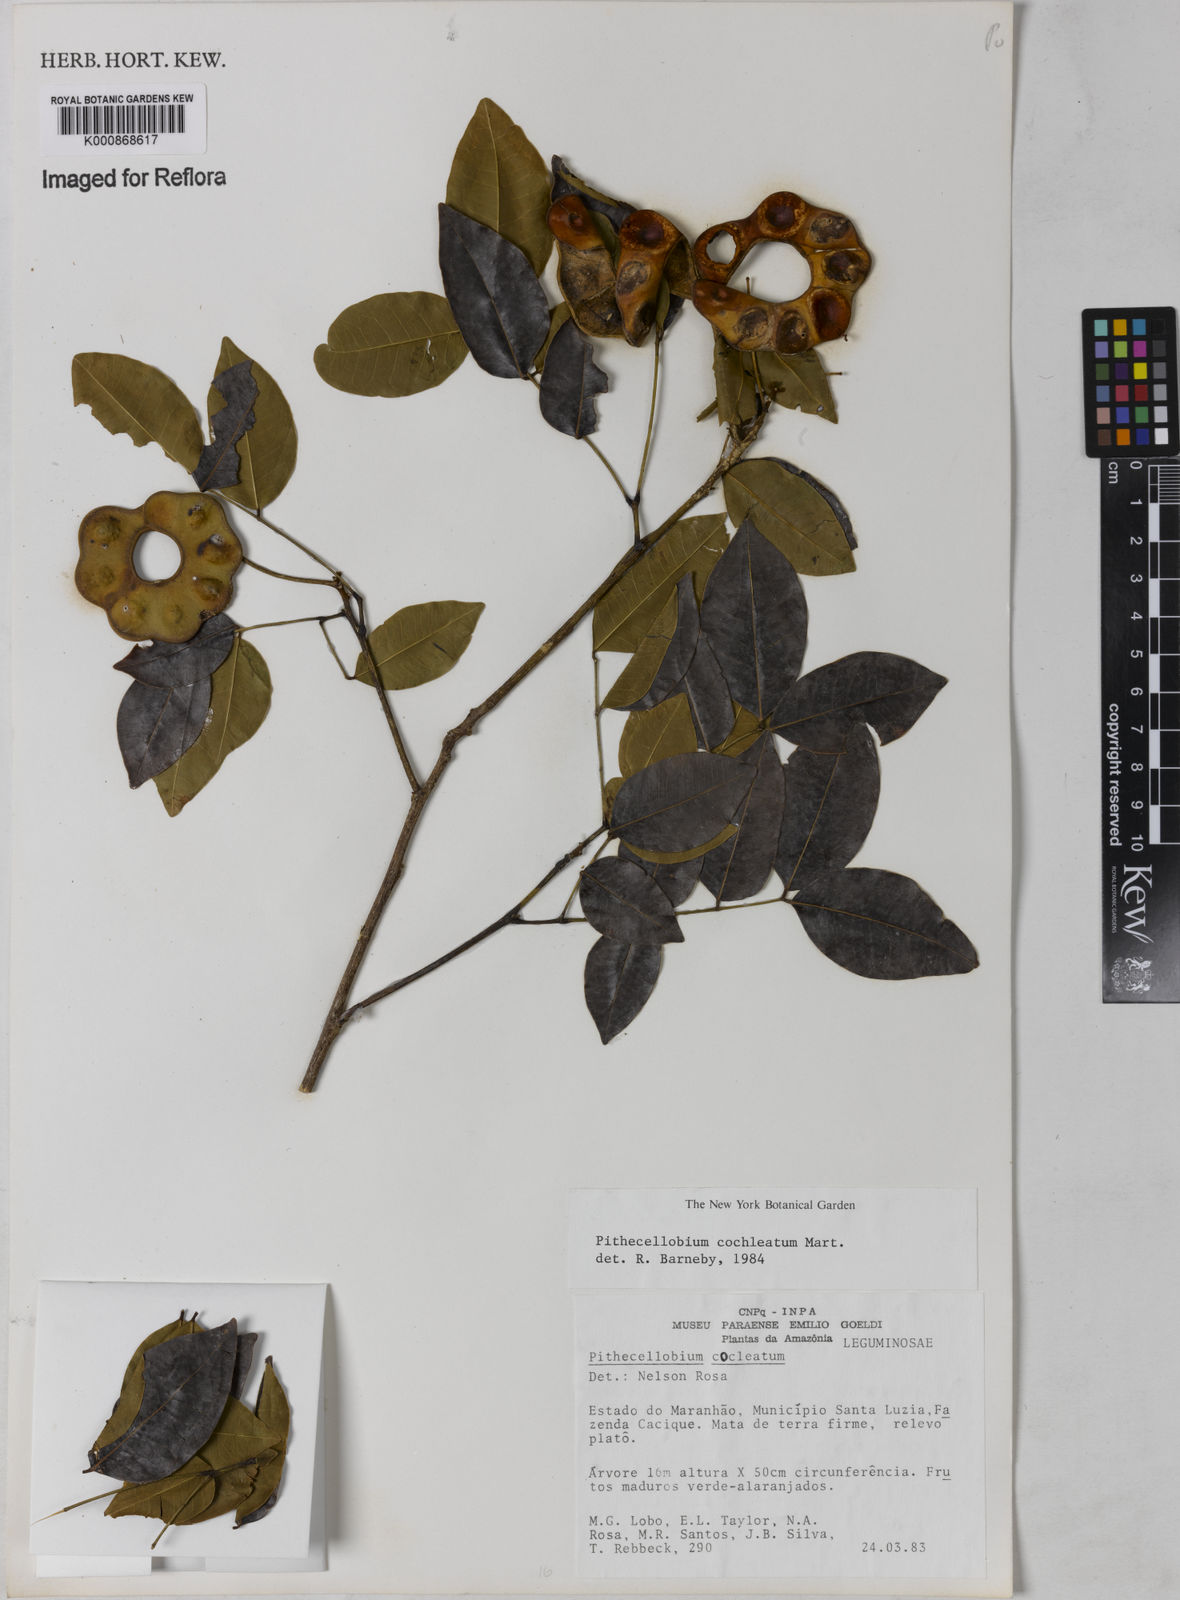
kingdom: Plantae
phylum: Tracheophyta
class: Magnoliopsida
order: Fabales
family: Fabaceae
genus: Jupunba
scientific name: Jupunba cochleata
